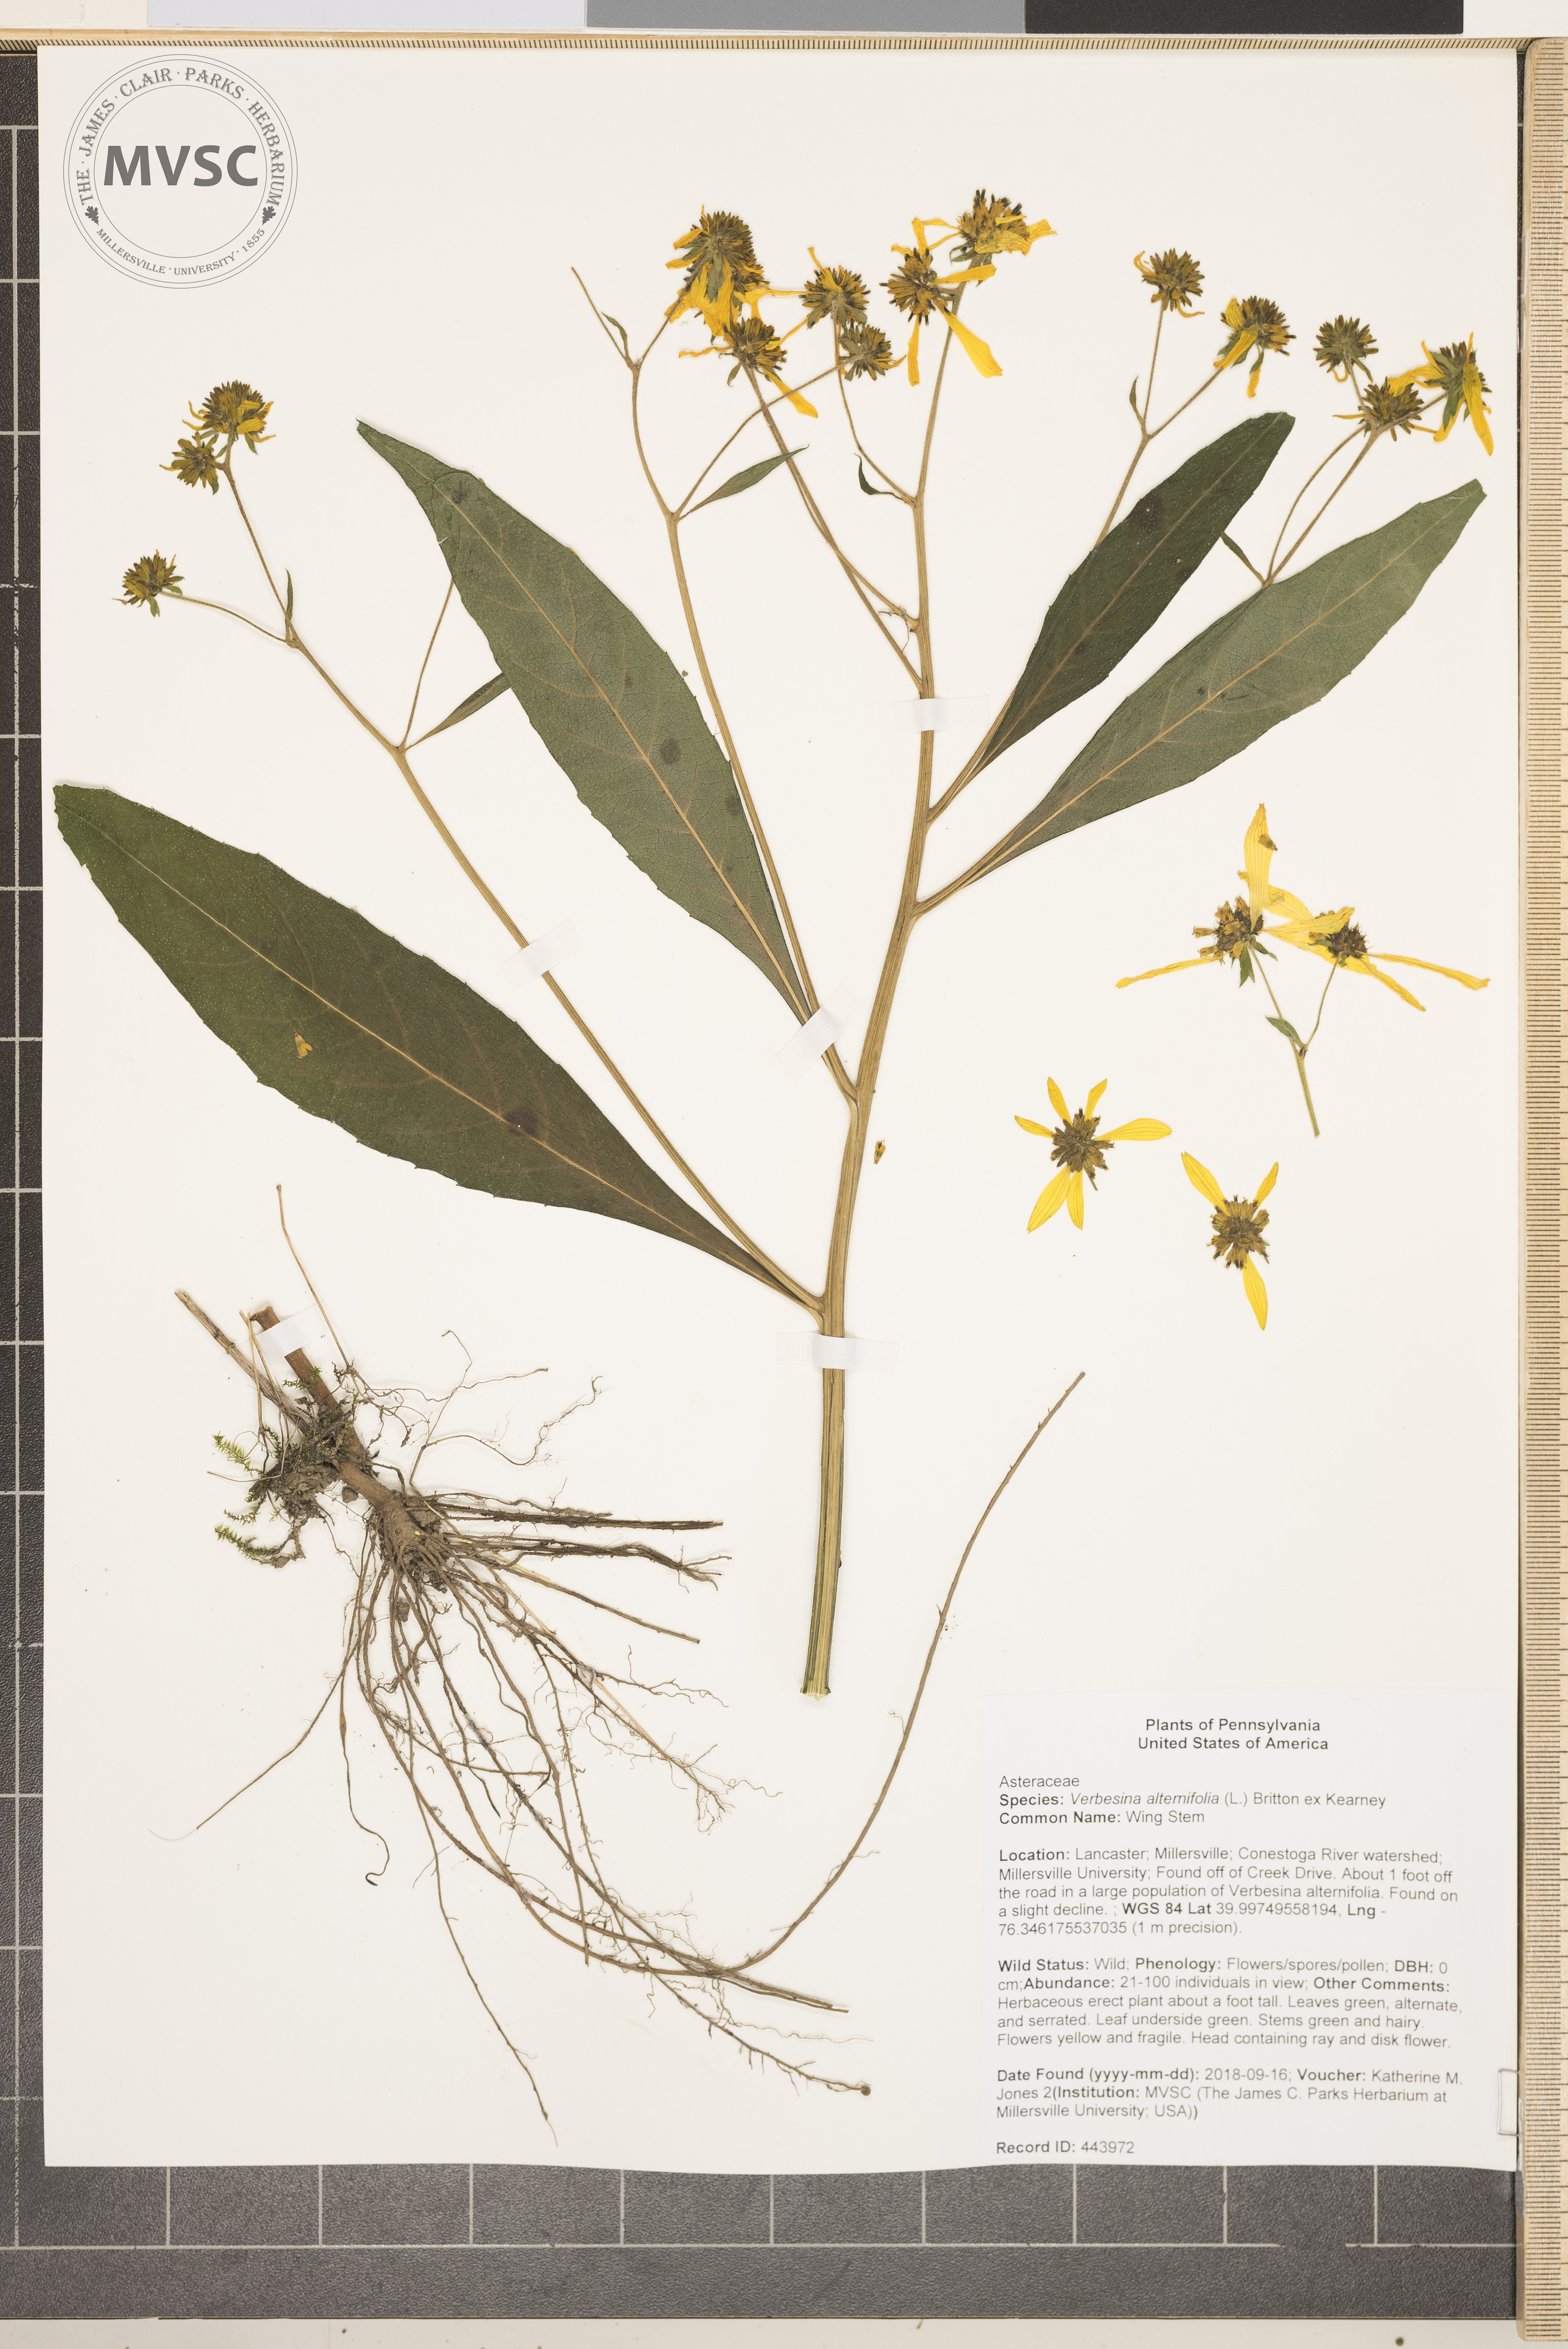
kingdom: Plantae
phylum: Tracheophyta
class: Magnoliopsida
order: Asterales
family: Asteraceae
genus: Verbesina
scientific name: Verbesina alternifolia
